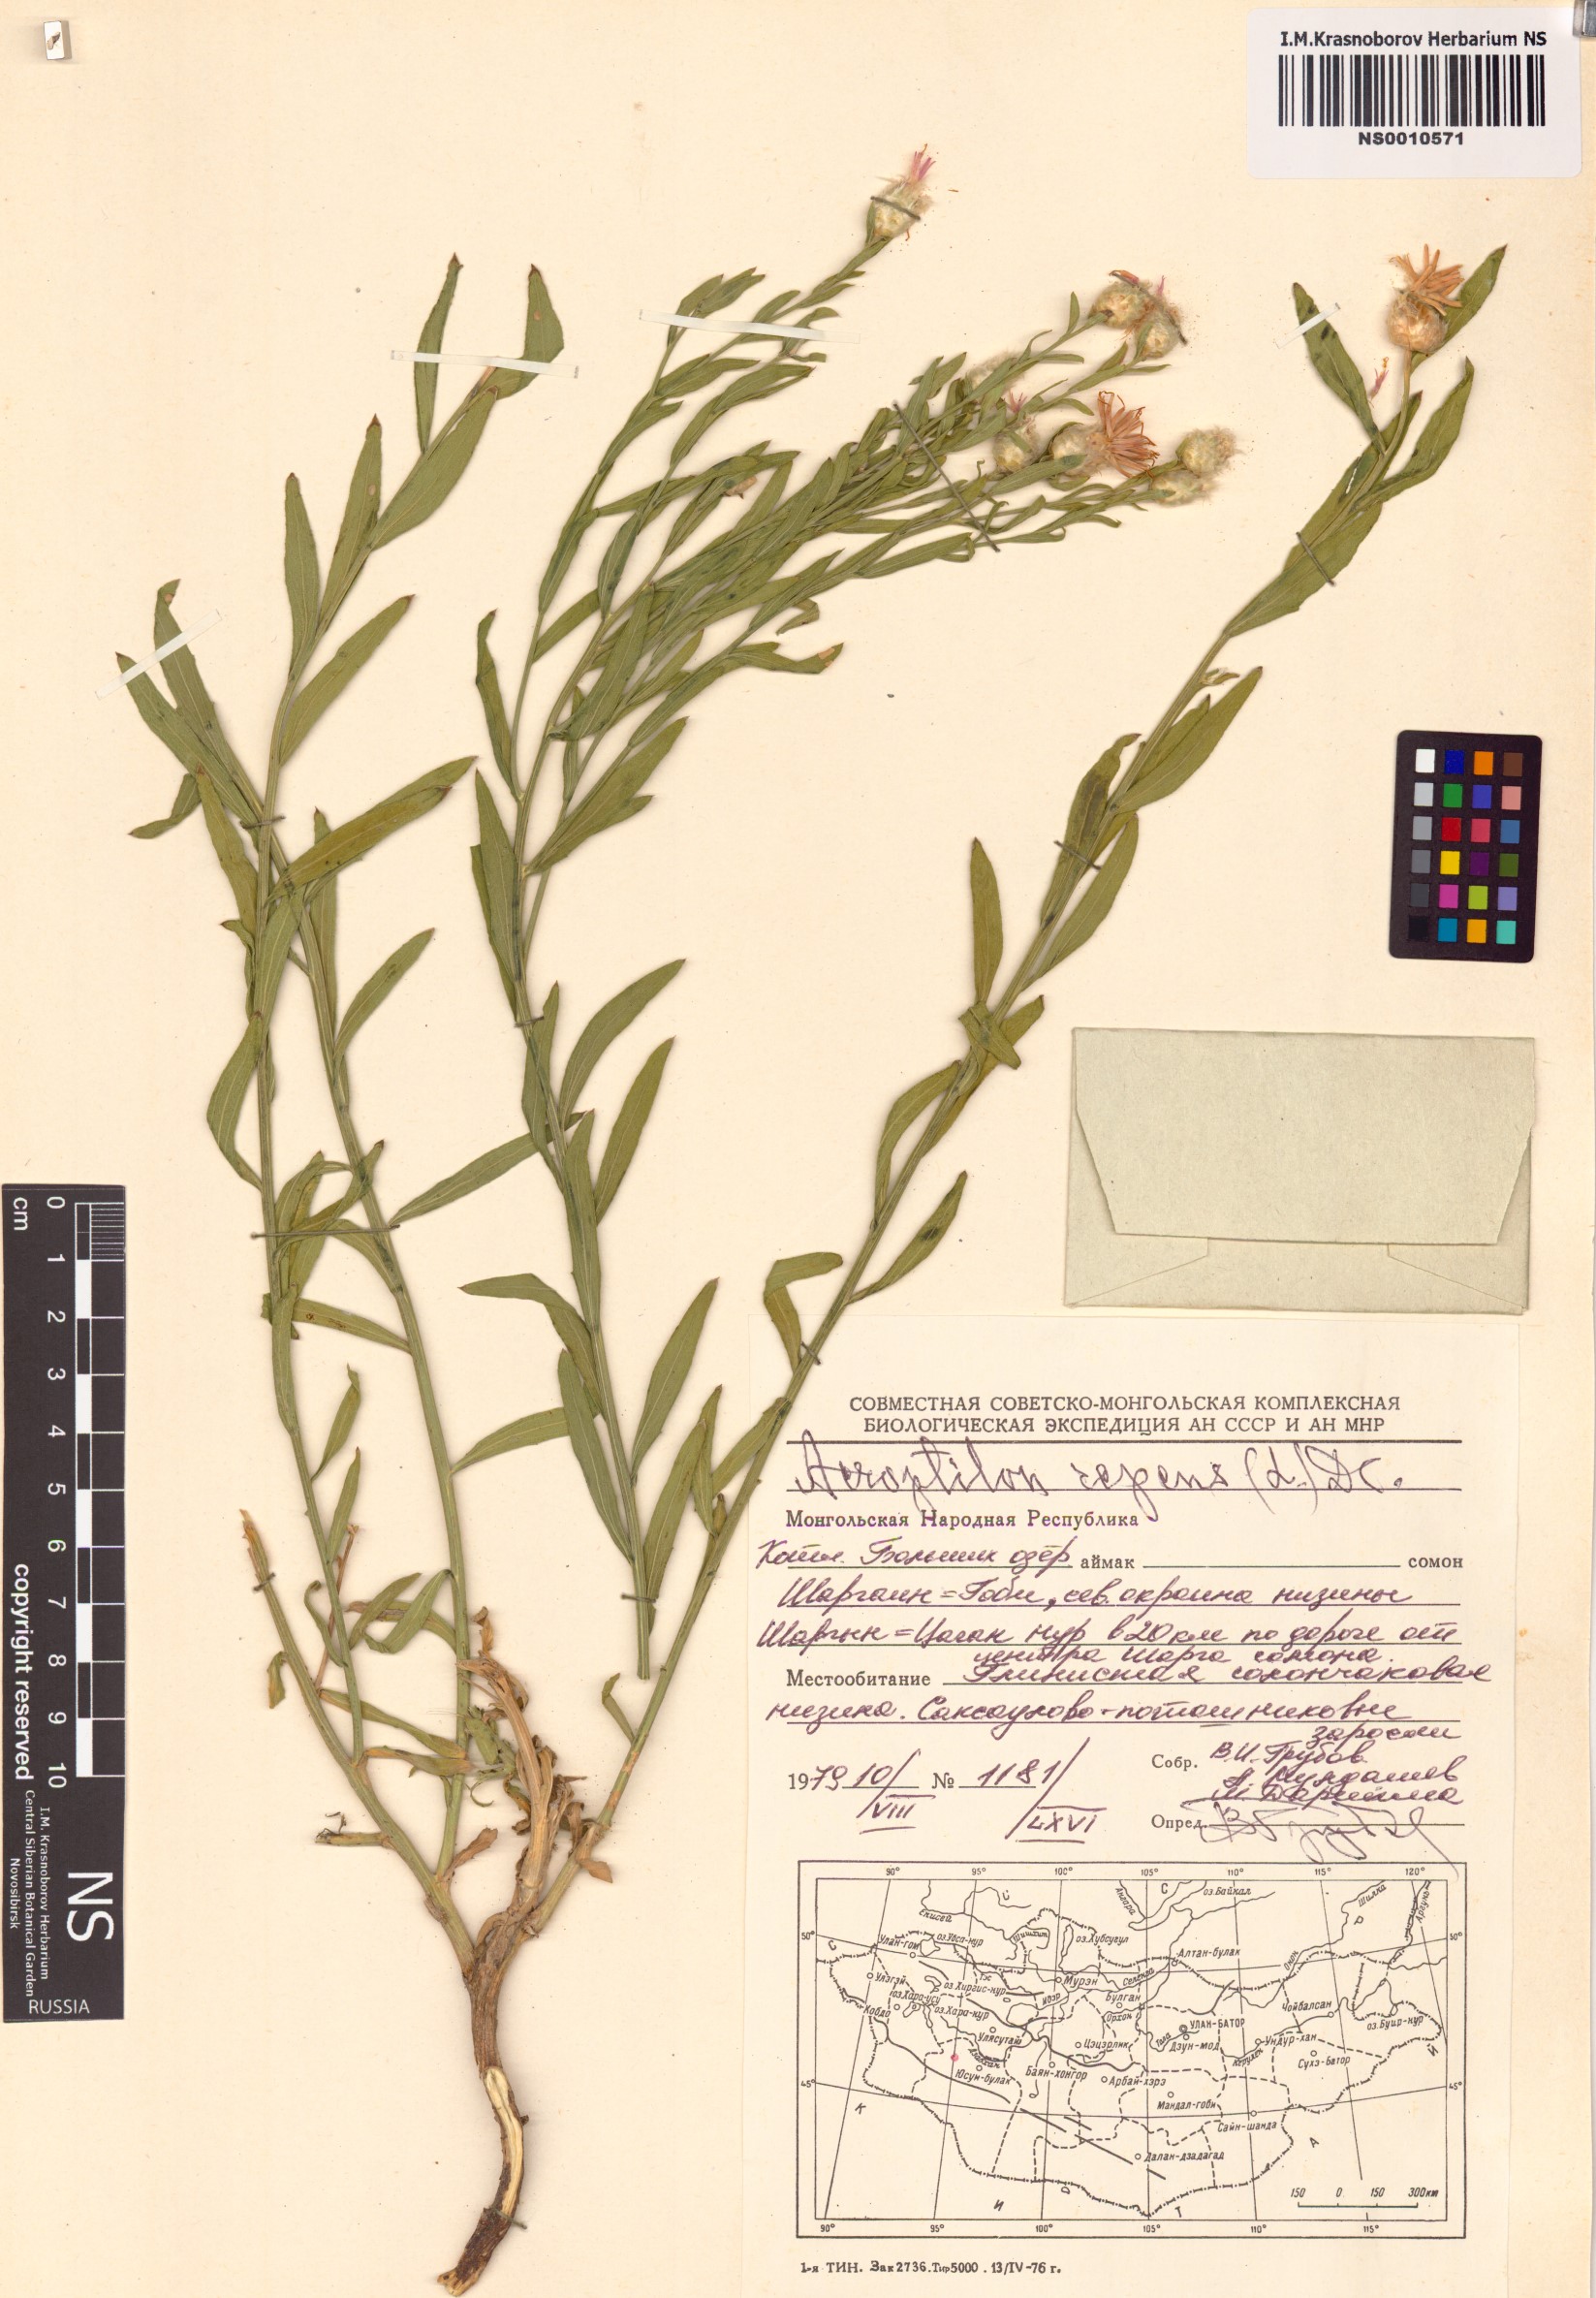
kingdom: Plantae
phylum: Tracheophyta
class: Magnoliopsida
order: Asterales
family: Asteraceae
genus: Leuzea
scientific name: Leuzea repens
